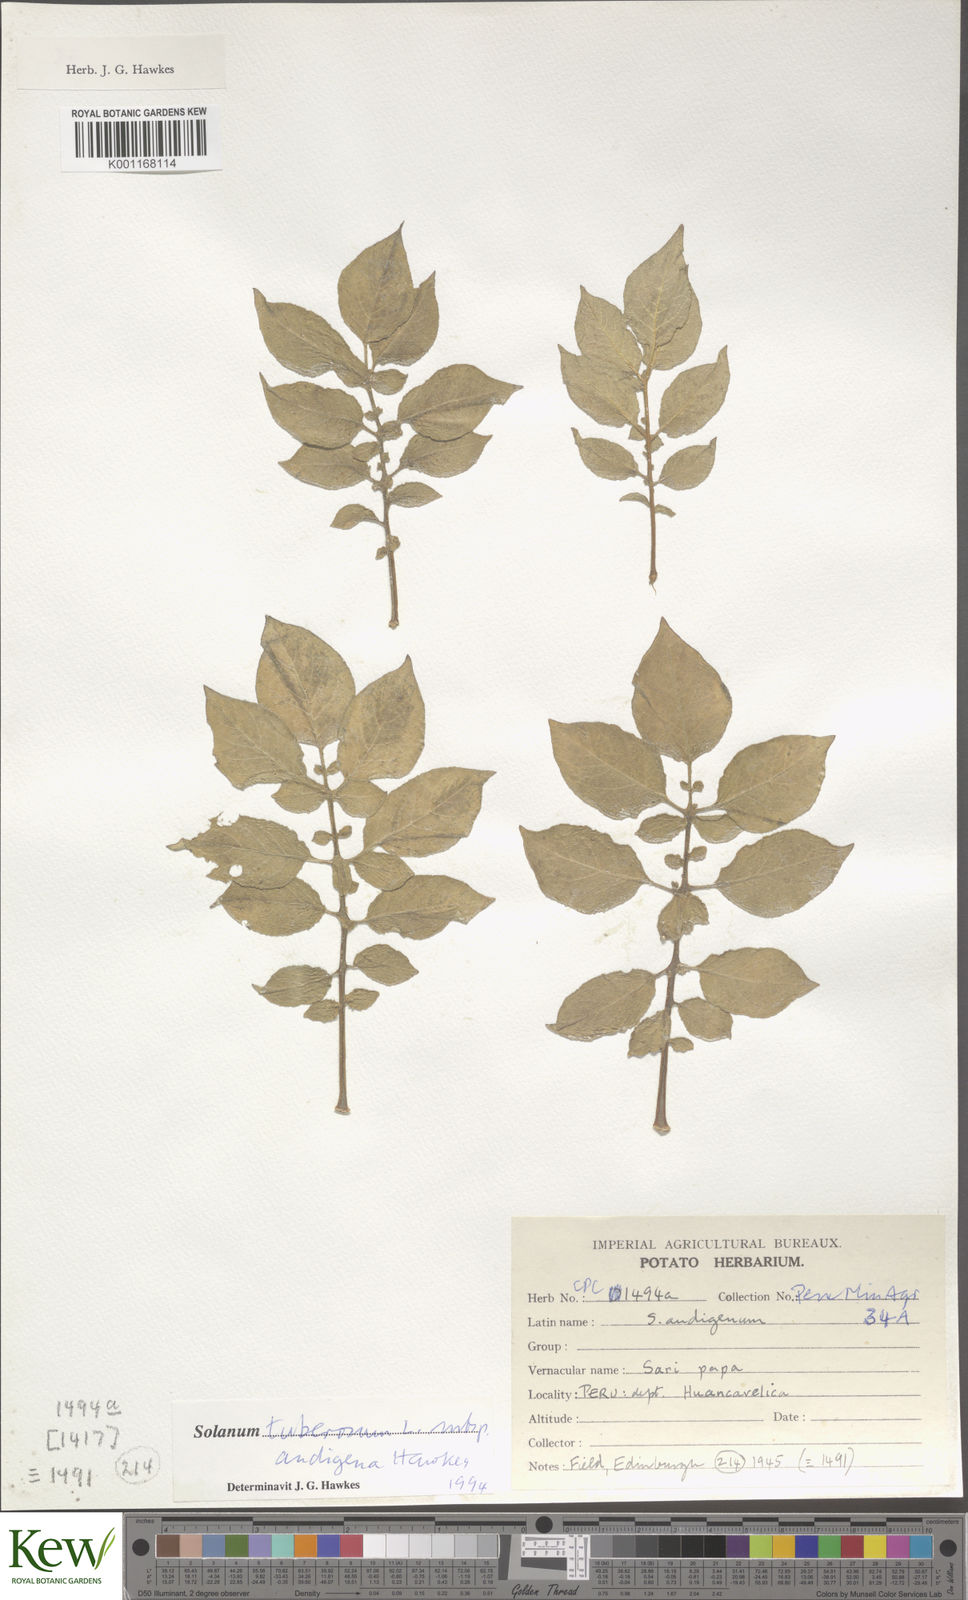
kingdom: Plantae
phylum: Tracheophyta
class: Magnoliopsida
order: Solanales
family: Solanaceae
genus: Solanum
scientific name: Solanum tuberosum
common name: Potato
